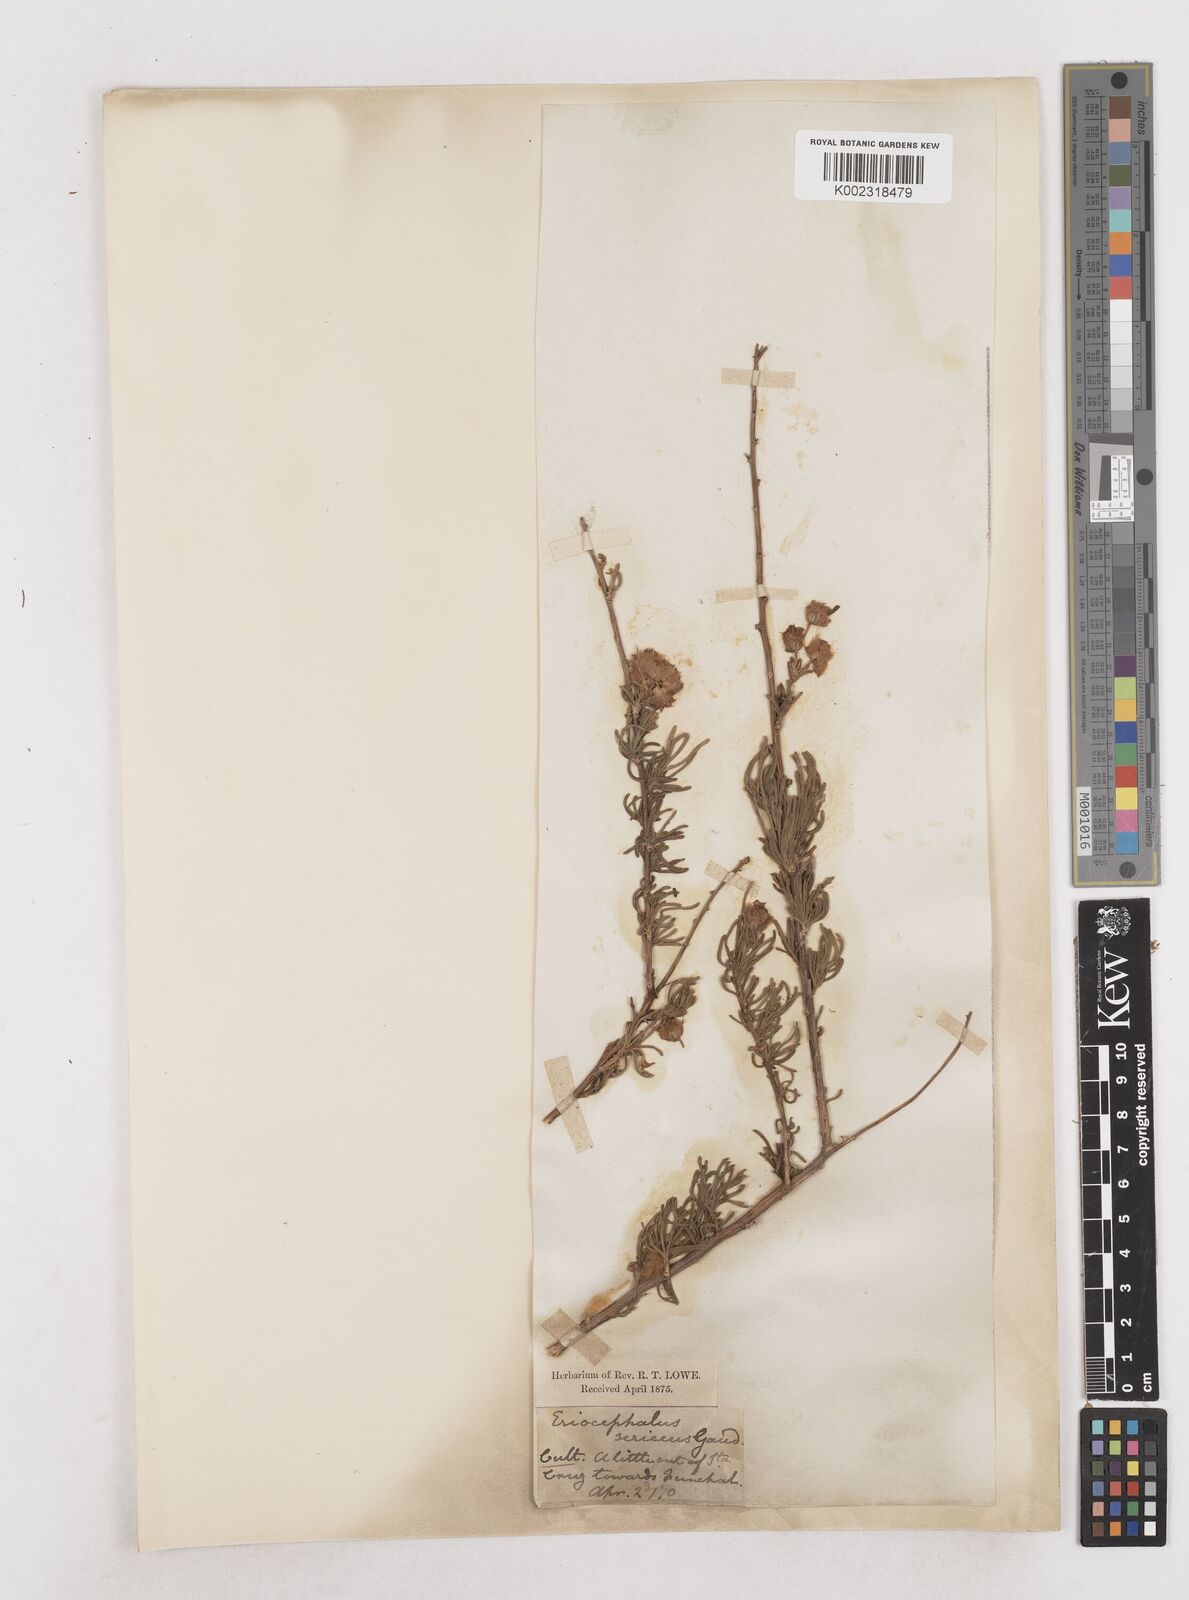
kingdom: Plantae
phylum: Tracheophyta
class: Magnoliopsida
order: Asterales
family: Asteraceae
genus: Eriocephalus
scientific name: Eriocephalus africanus
